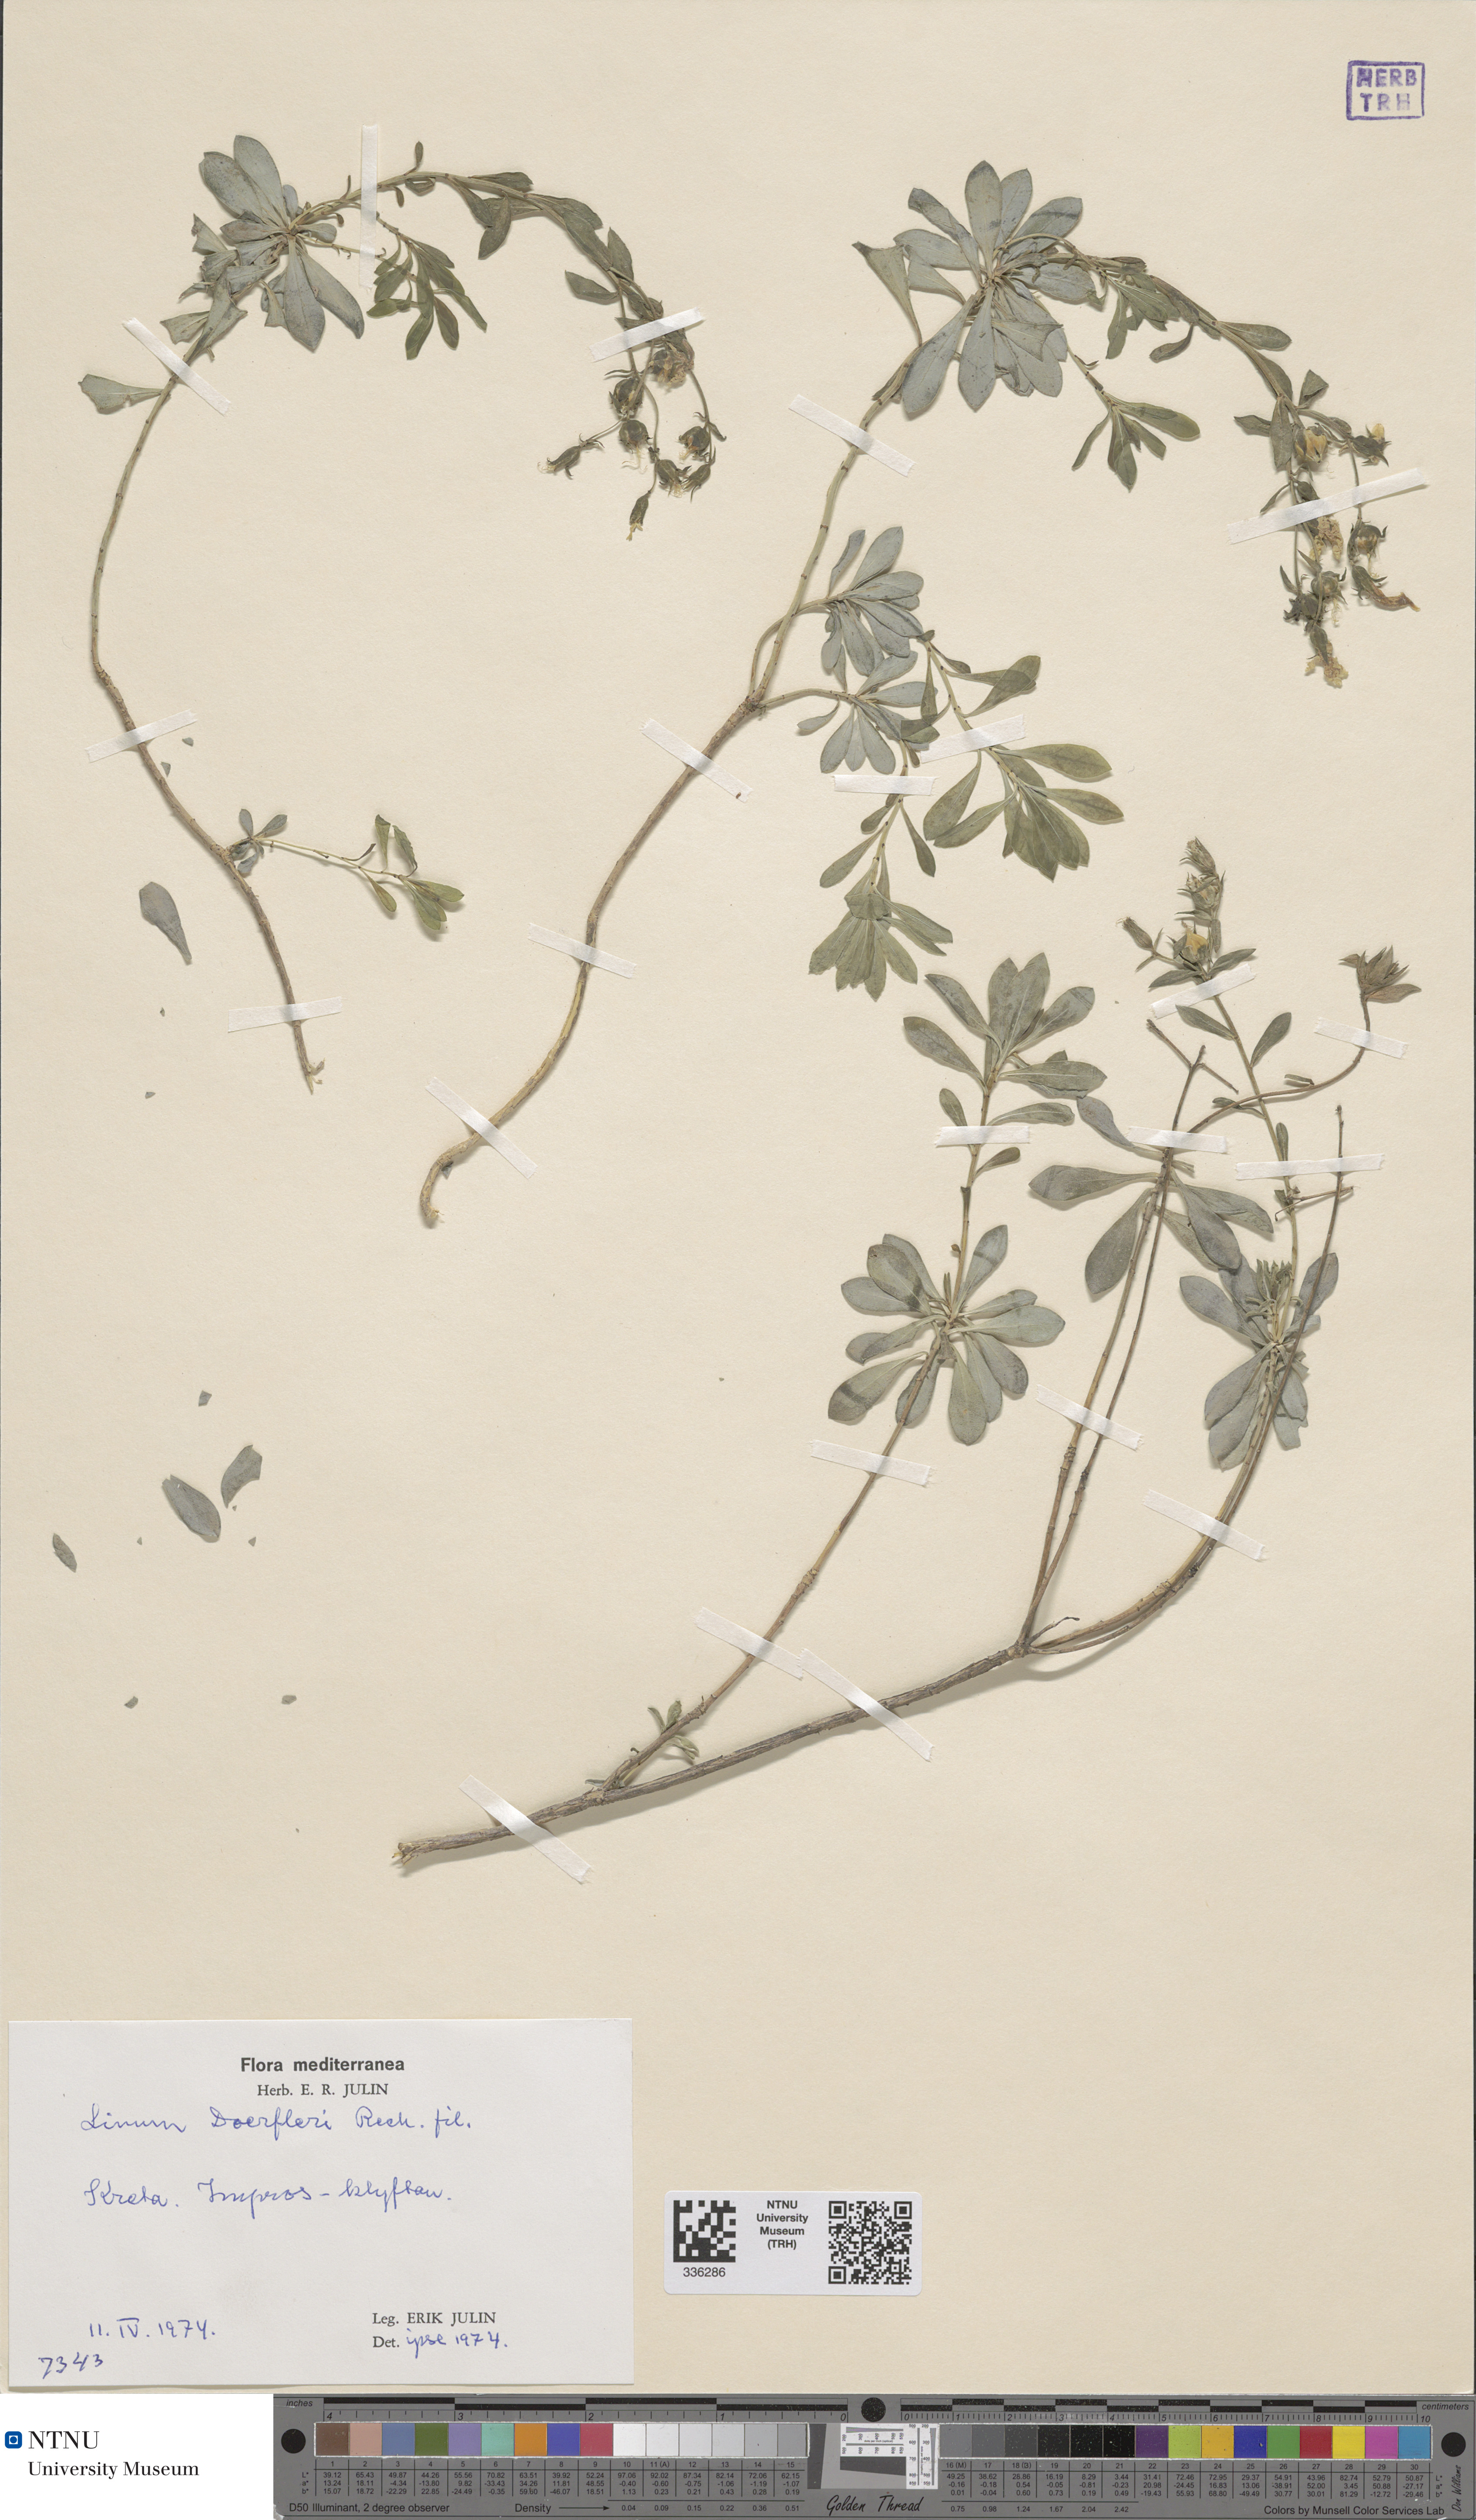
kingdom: Plantae
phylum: Tracheophyta
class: Magnoliopsida
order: Malpighiales
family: Linaceae
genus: Linum
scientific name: Linum doerfleri
